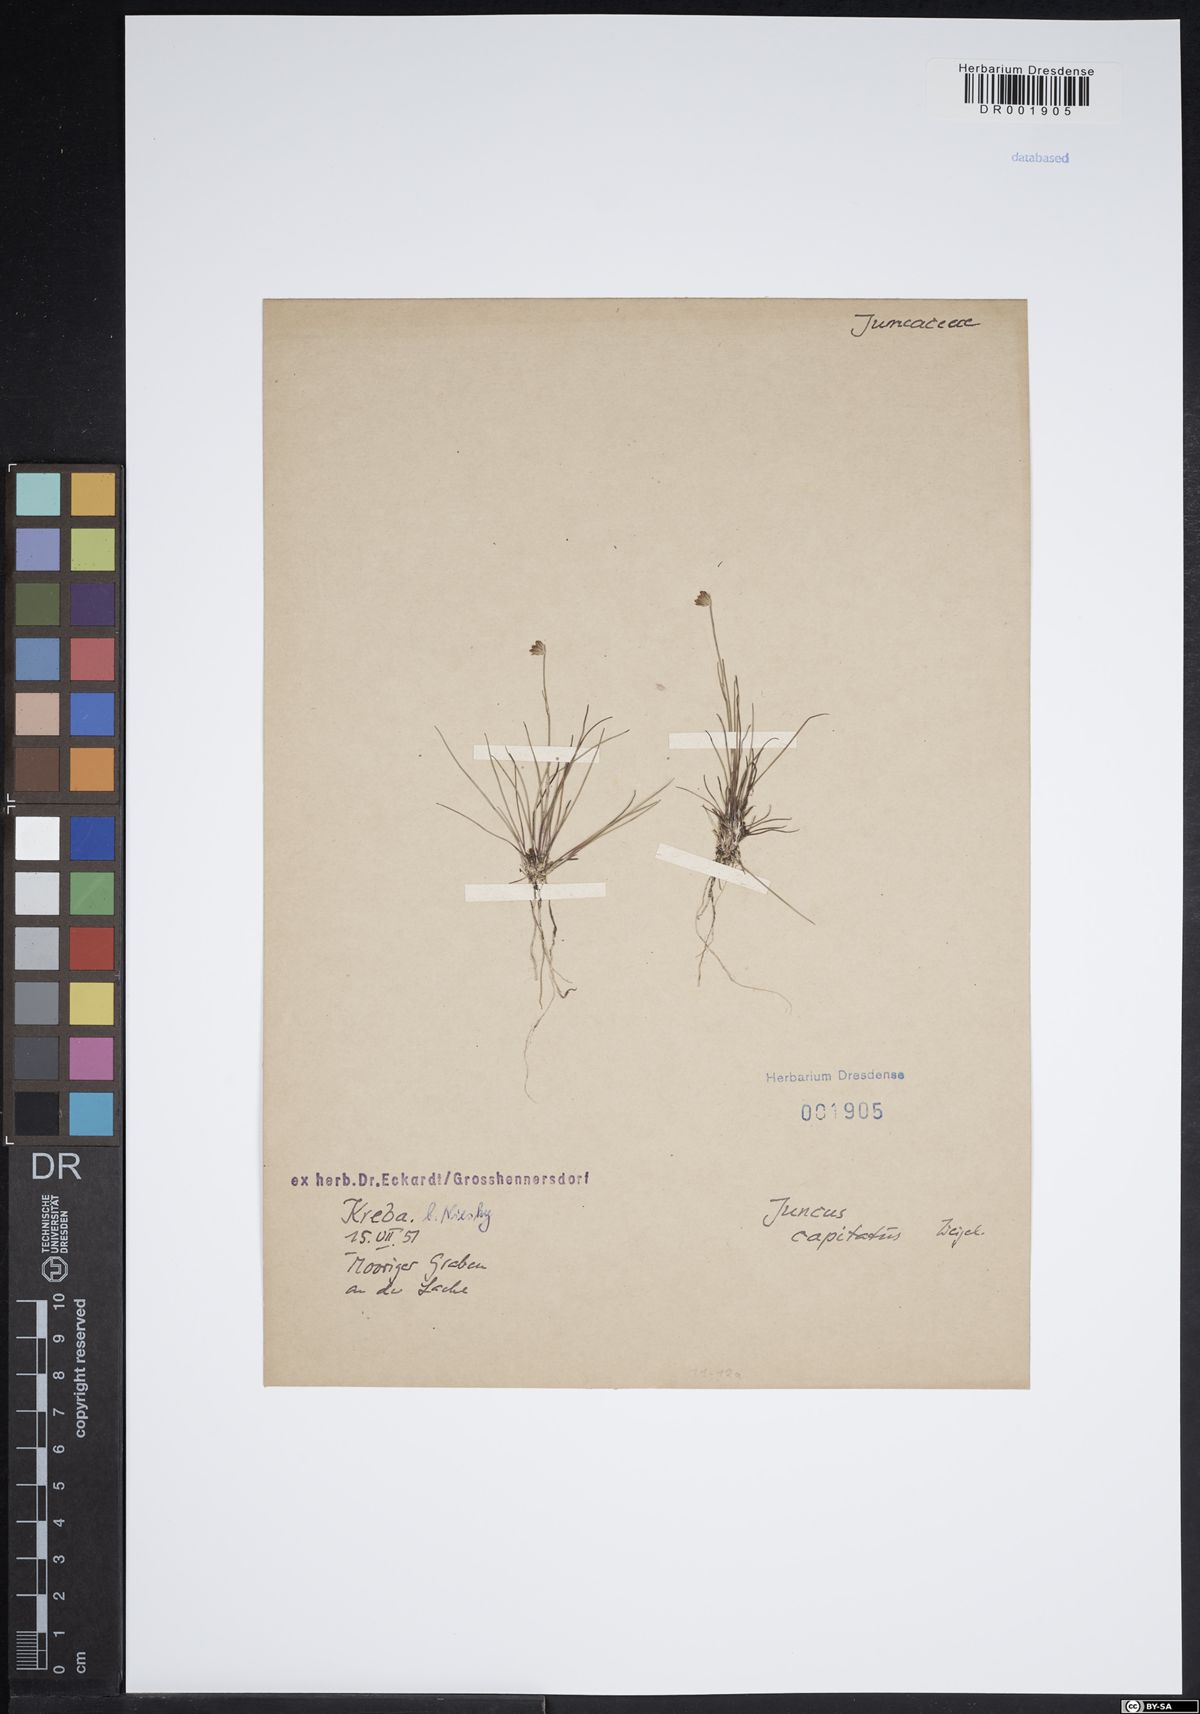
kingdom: Plantae
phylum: Tracheophyta
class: Liliopsida
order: Poales
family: Juncaceae
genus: Juncus
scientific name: Juncus capitatus
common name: Dwarf rush
